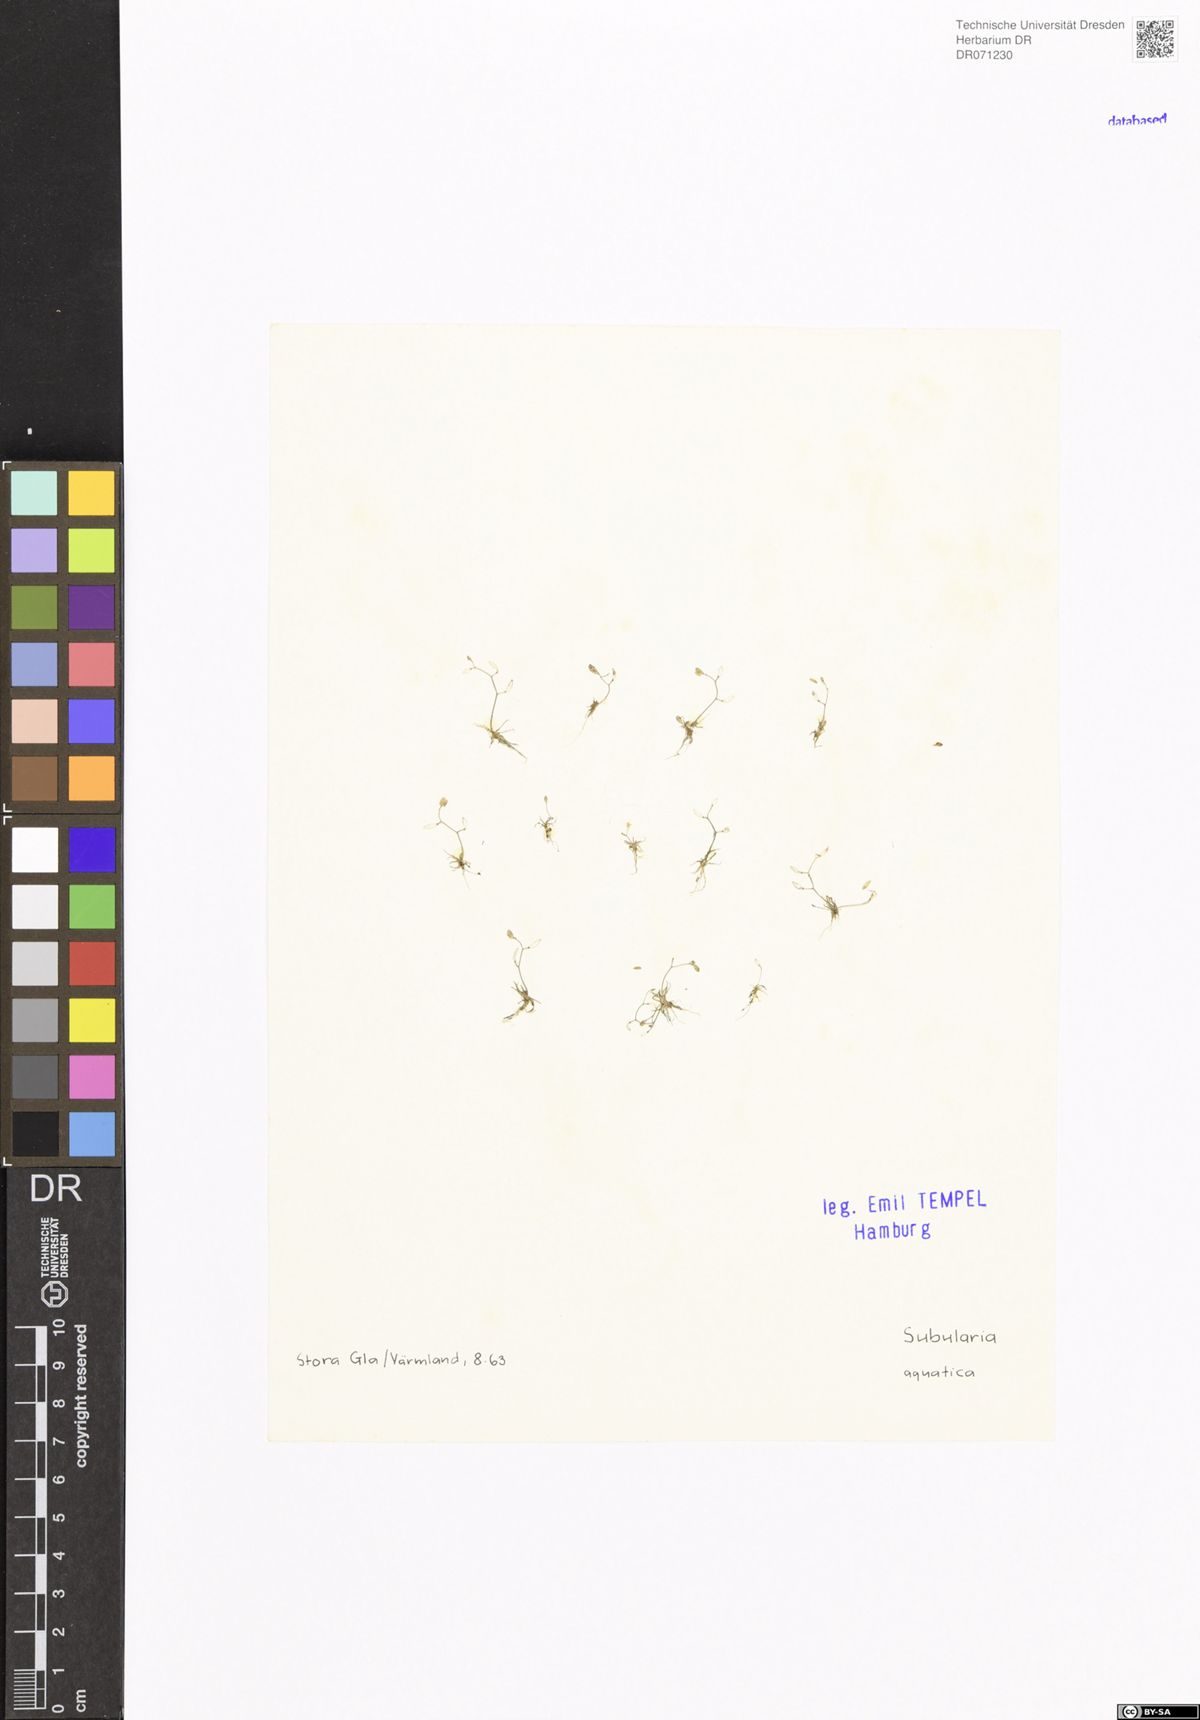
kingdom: Plantae
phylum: Tracheophyta
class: Magnoliopsida
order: Brassicales
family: Brassicaceae
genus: Subularia
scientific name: Subularia aquatica
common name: Awlwort
